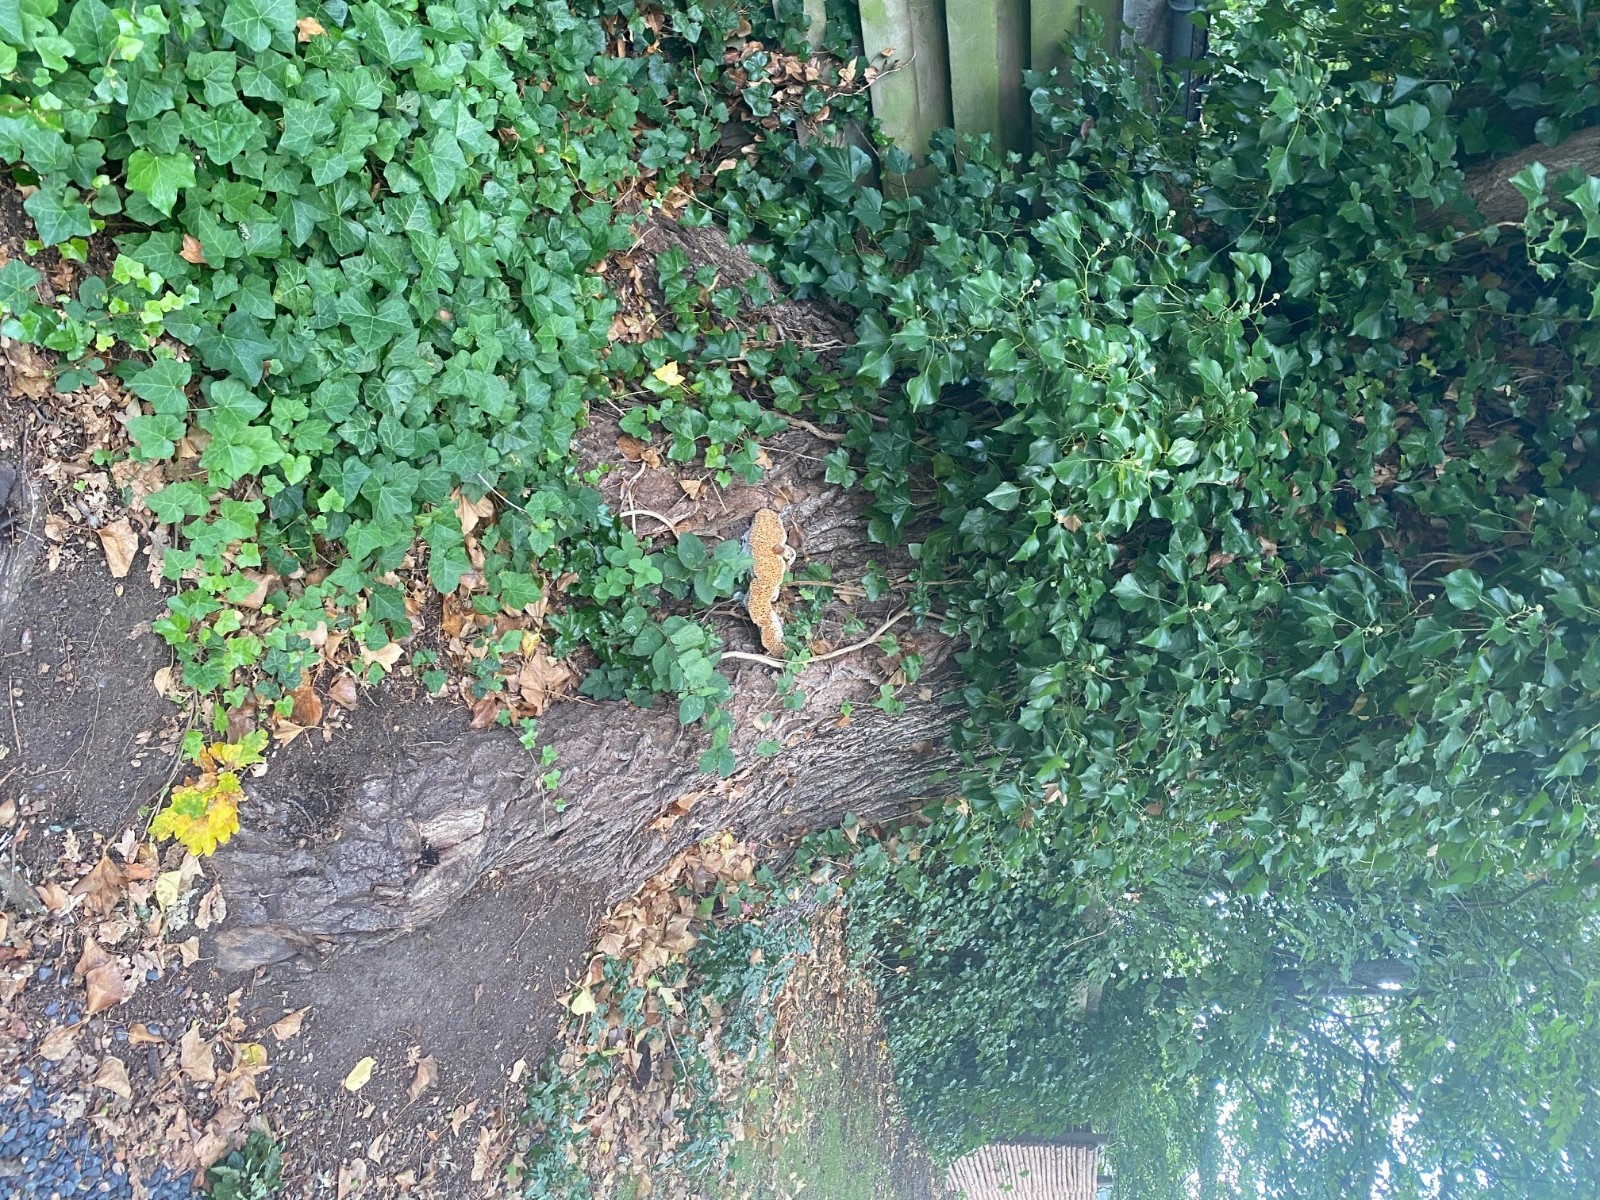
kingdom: Fungi
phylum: Basidiomycota
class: Agaricomycetes
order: Hymenochaetales
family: Hymenochaetaceae
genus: Pseudoinonotus
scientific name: Pseudoinonotus dryadeus
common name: ege-spejlporesvamp
